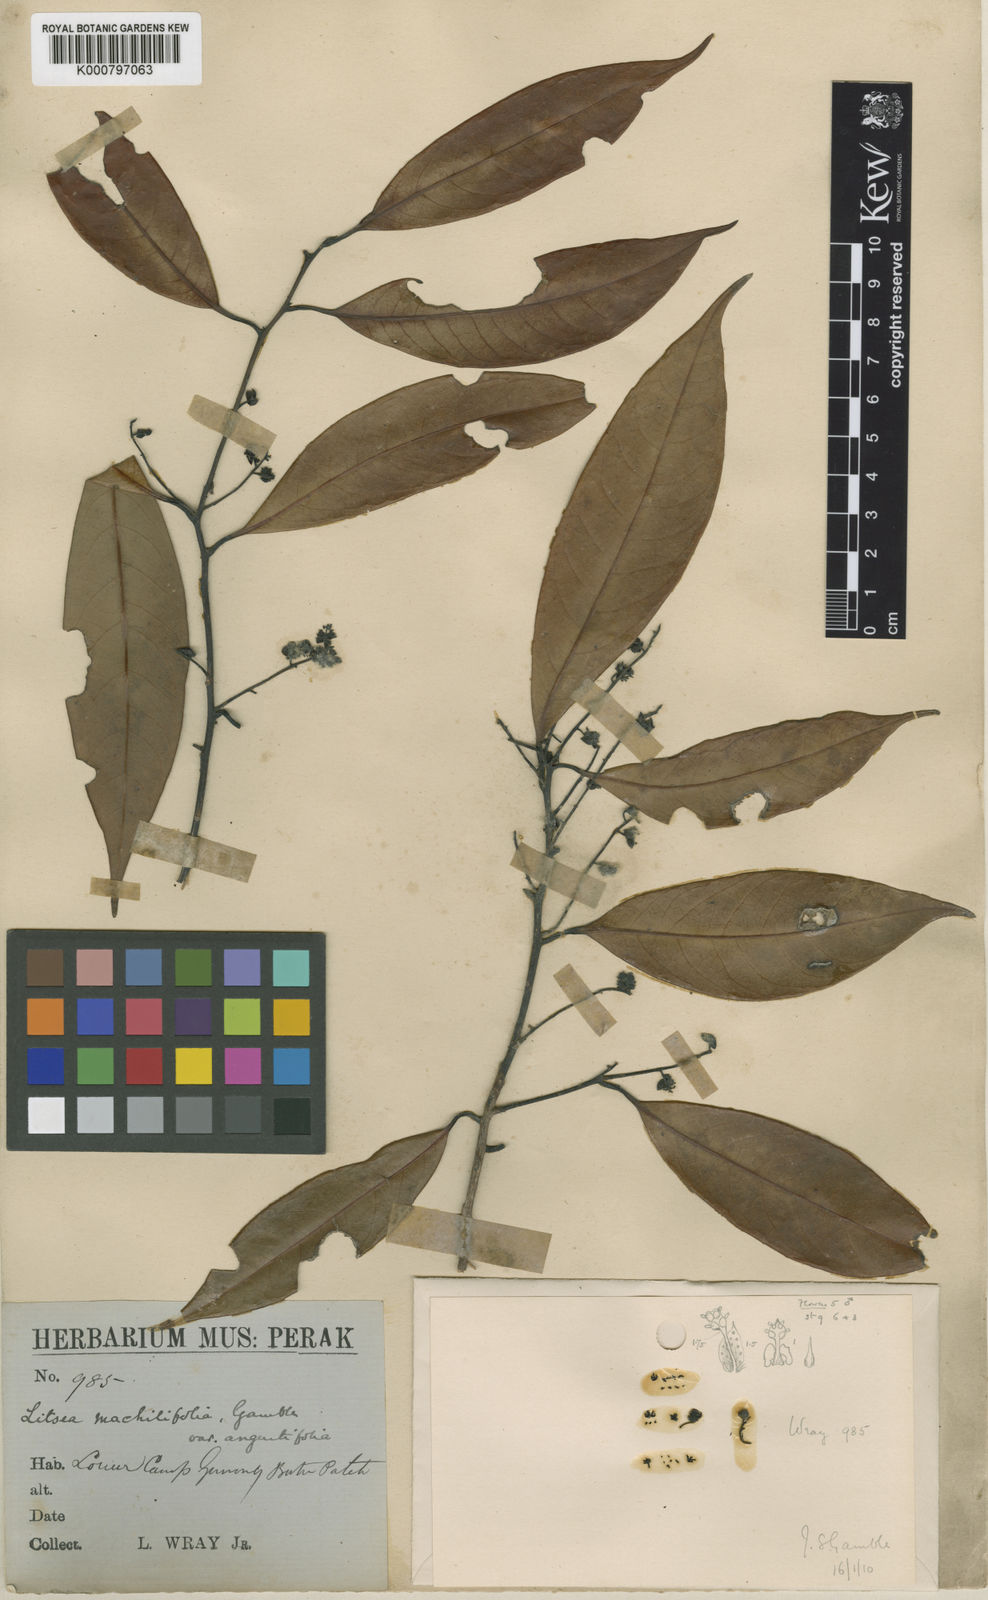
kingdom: Plantae
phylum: Tracheophyta
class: Magnoliopsida
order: Laurales
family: Lauraceae
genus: Litsea
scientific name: Litsea machilifolia
